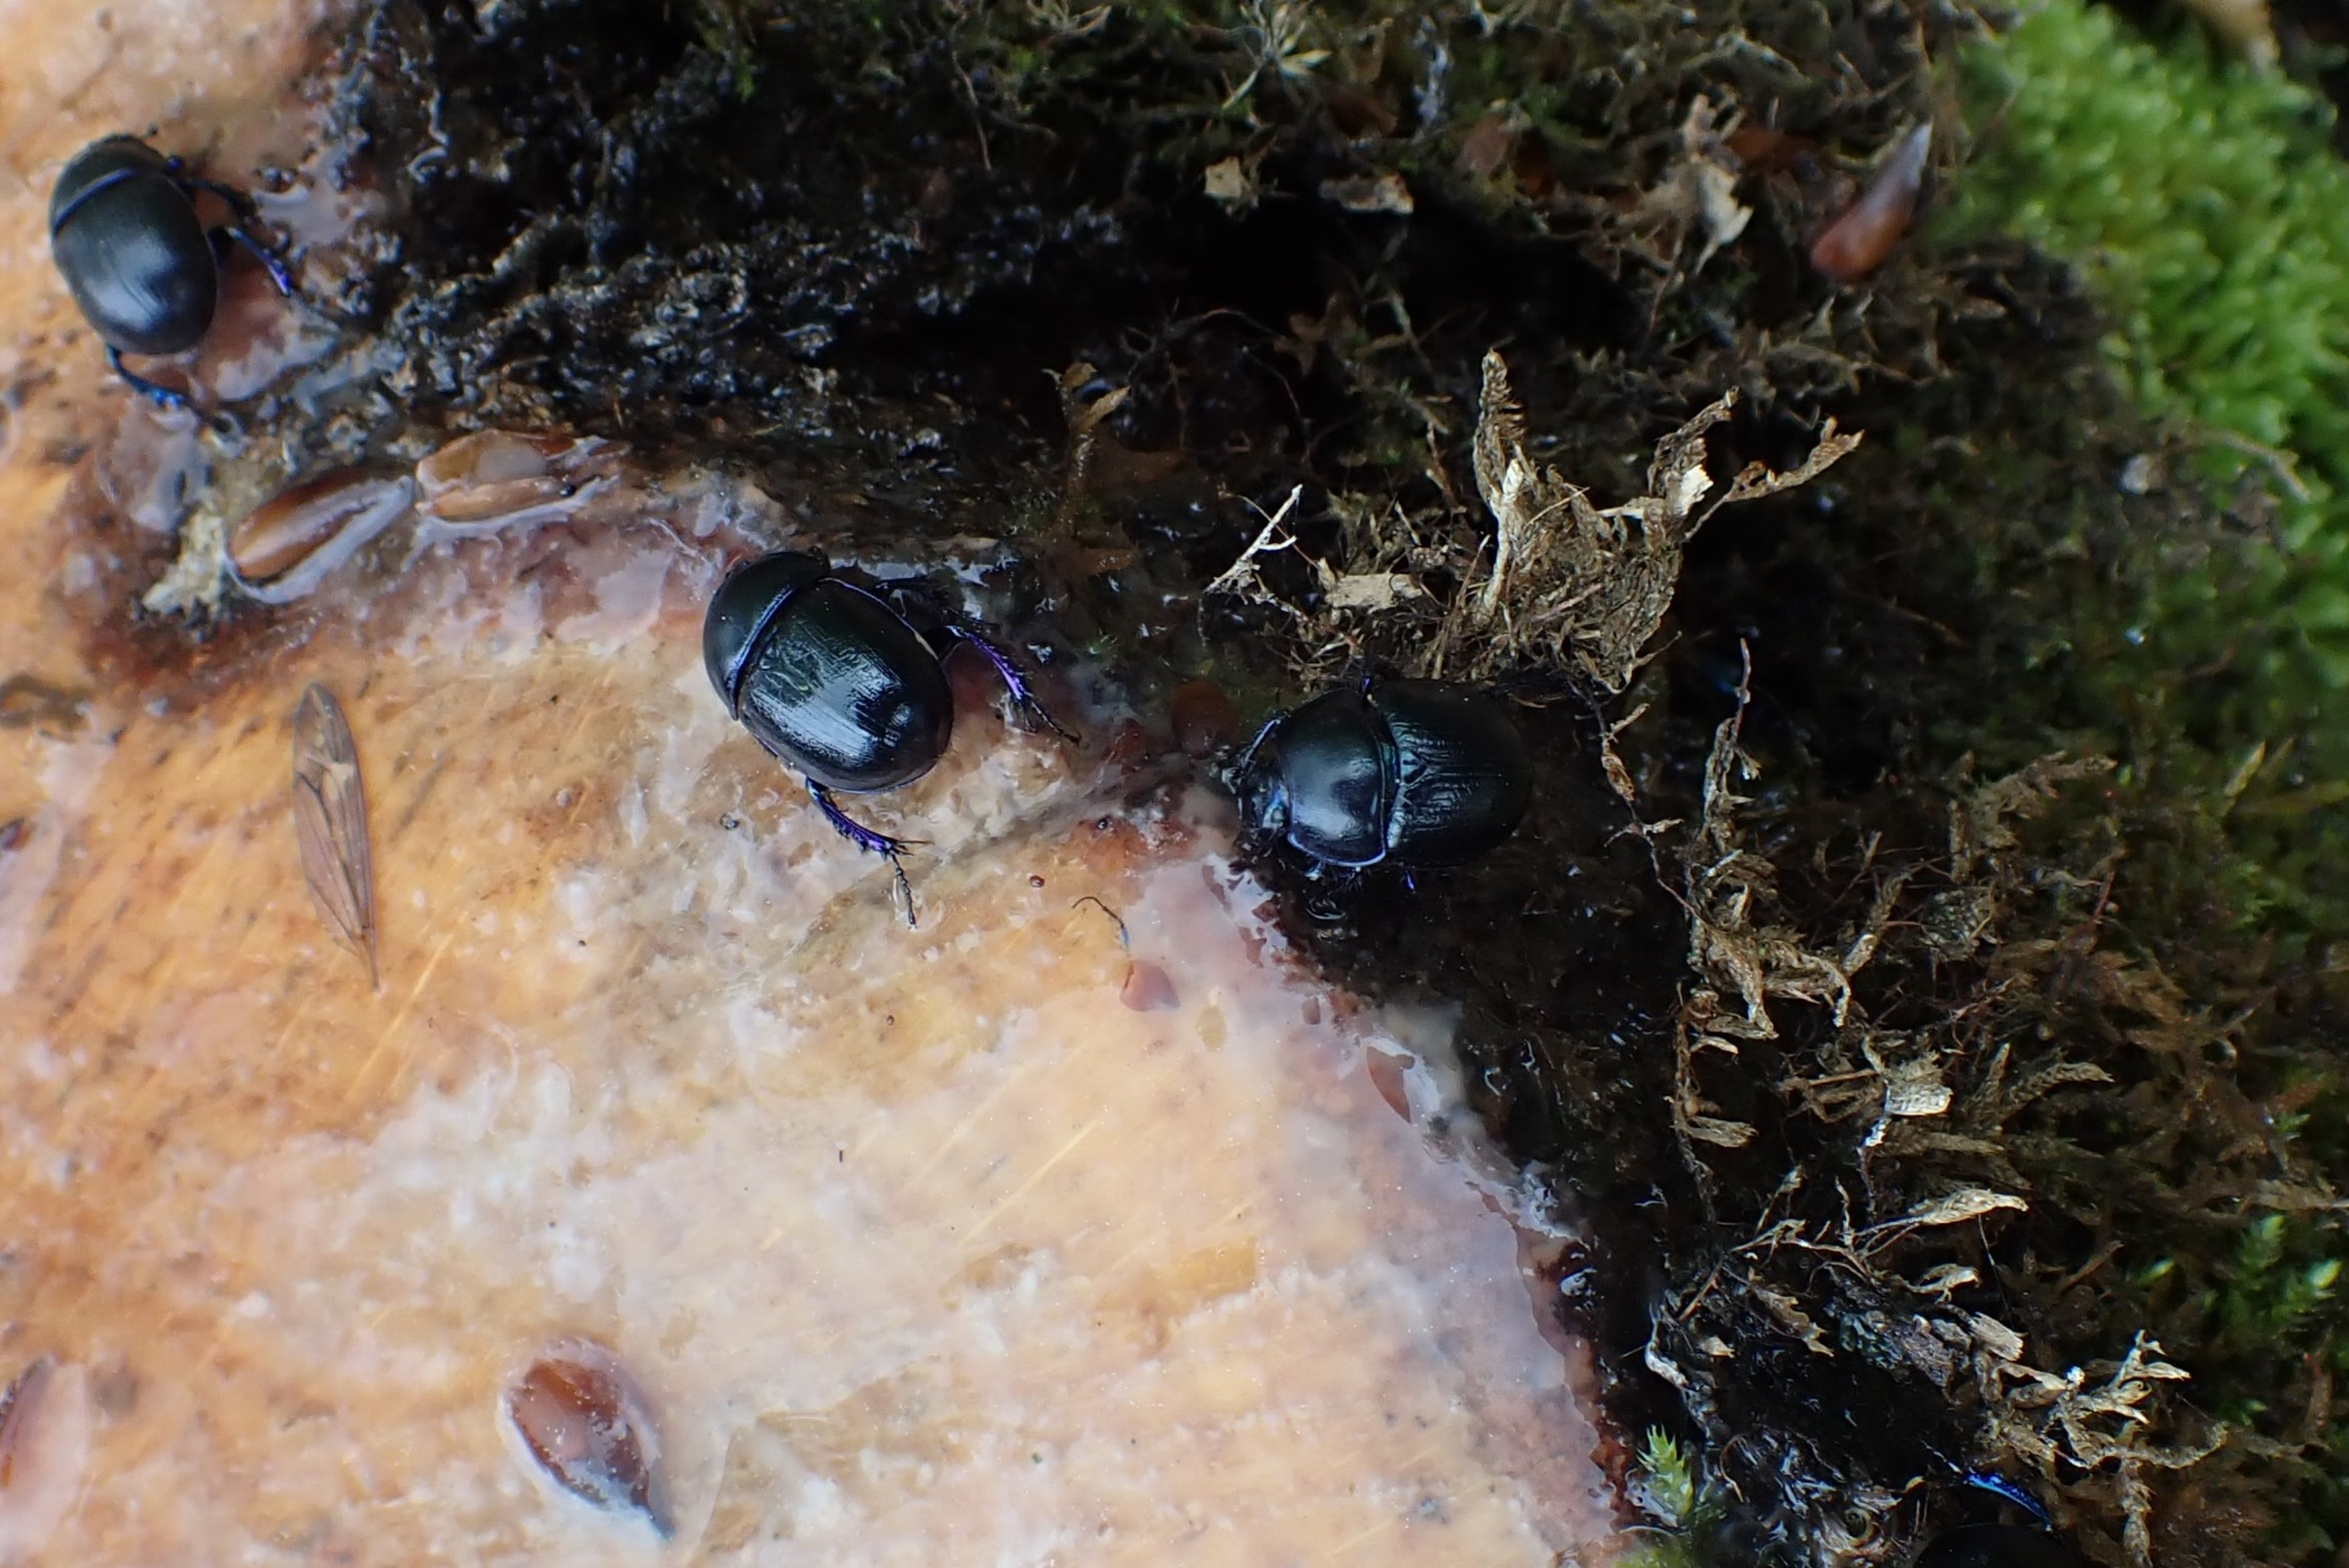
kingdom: Animalia
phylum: Arthropoda
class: Insecta
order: Coleoptera
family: Geotrupidae
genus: Anoplotrupes
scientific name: Anoplotrupes stercorosus
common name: Skovskarnbasse
